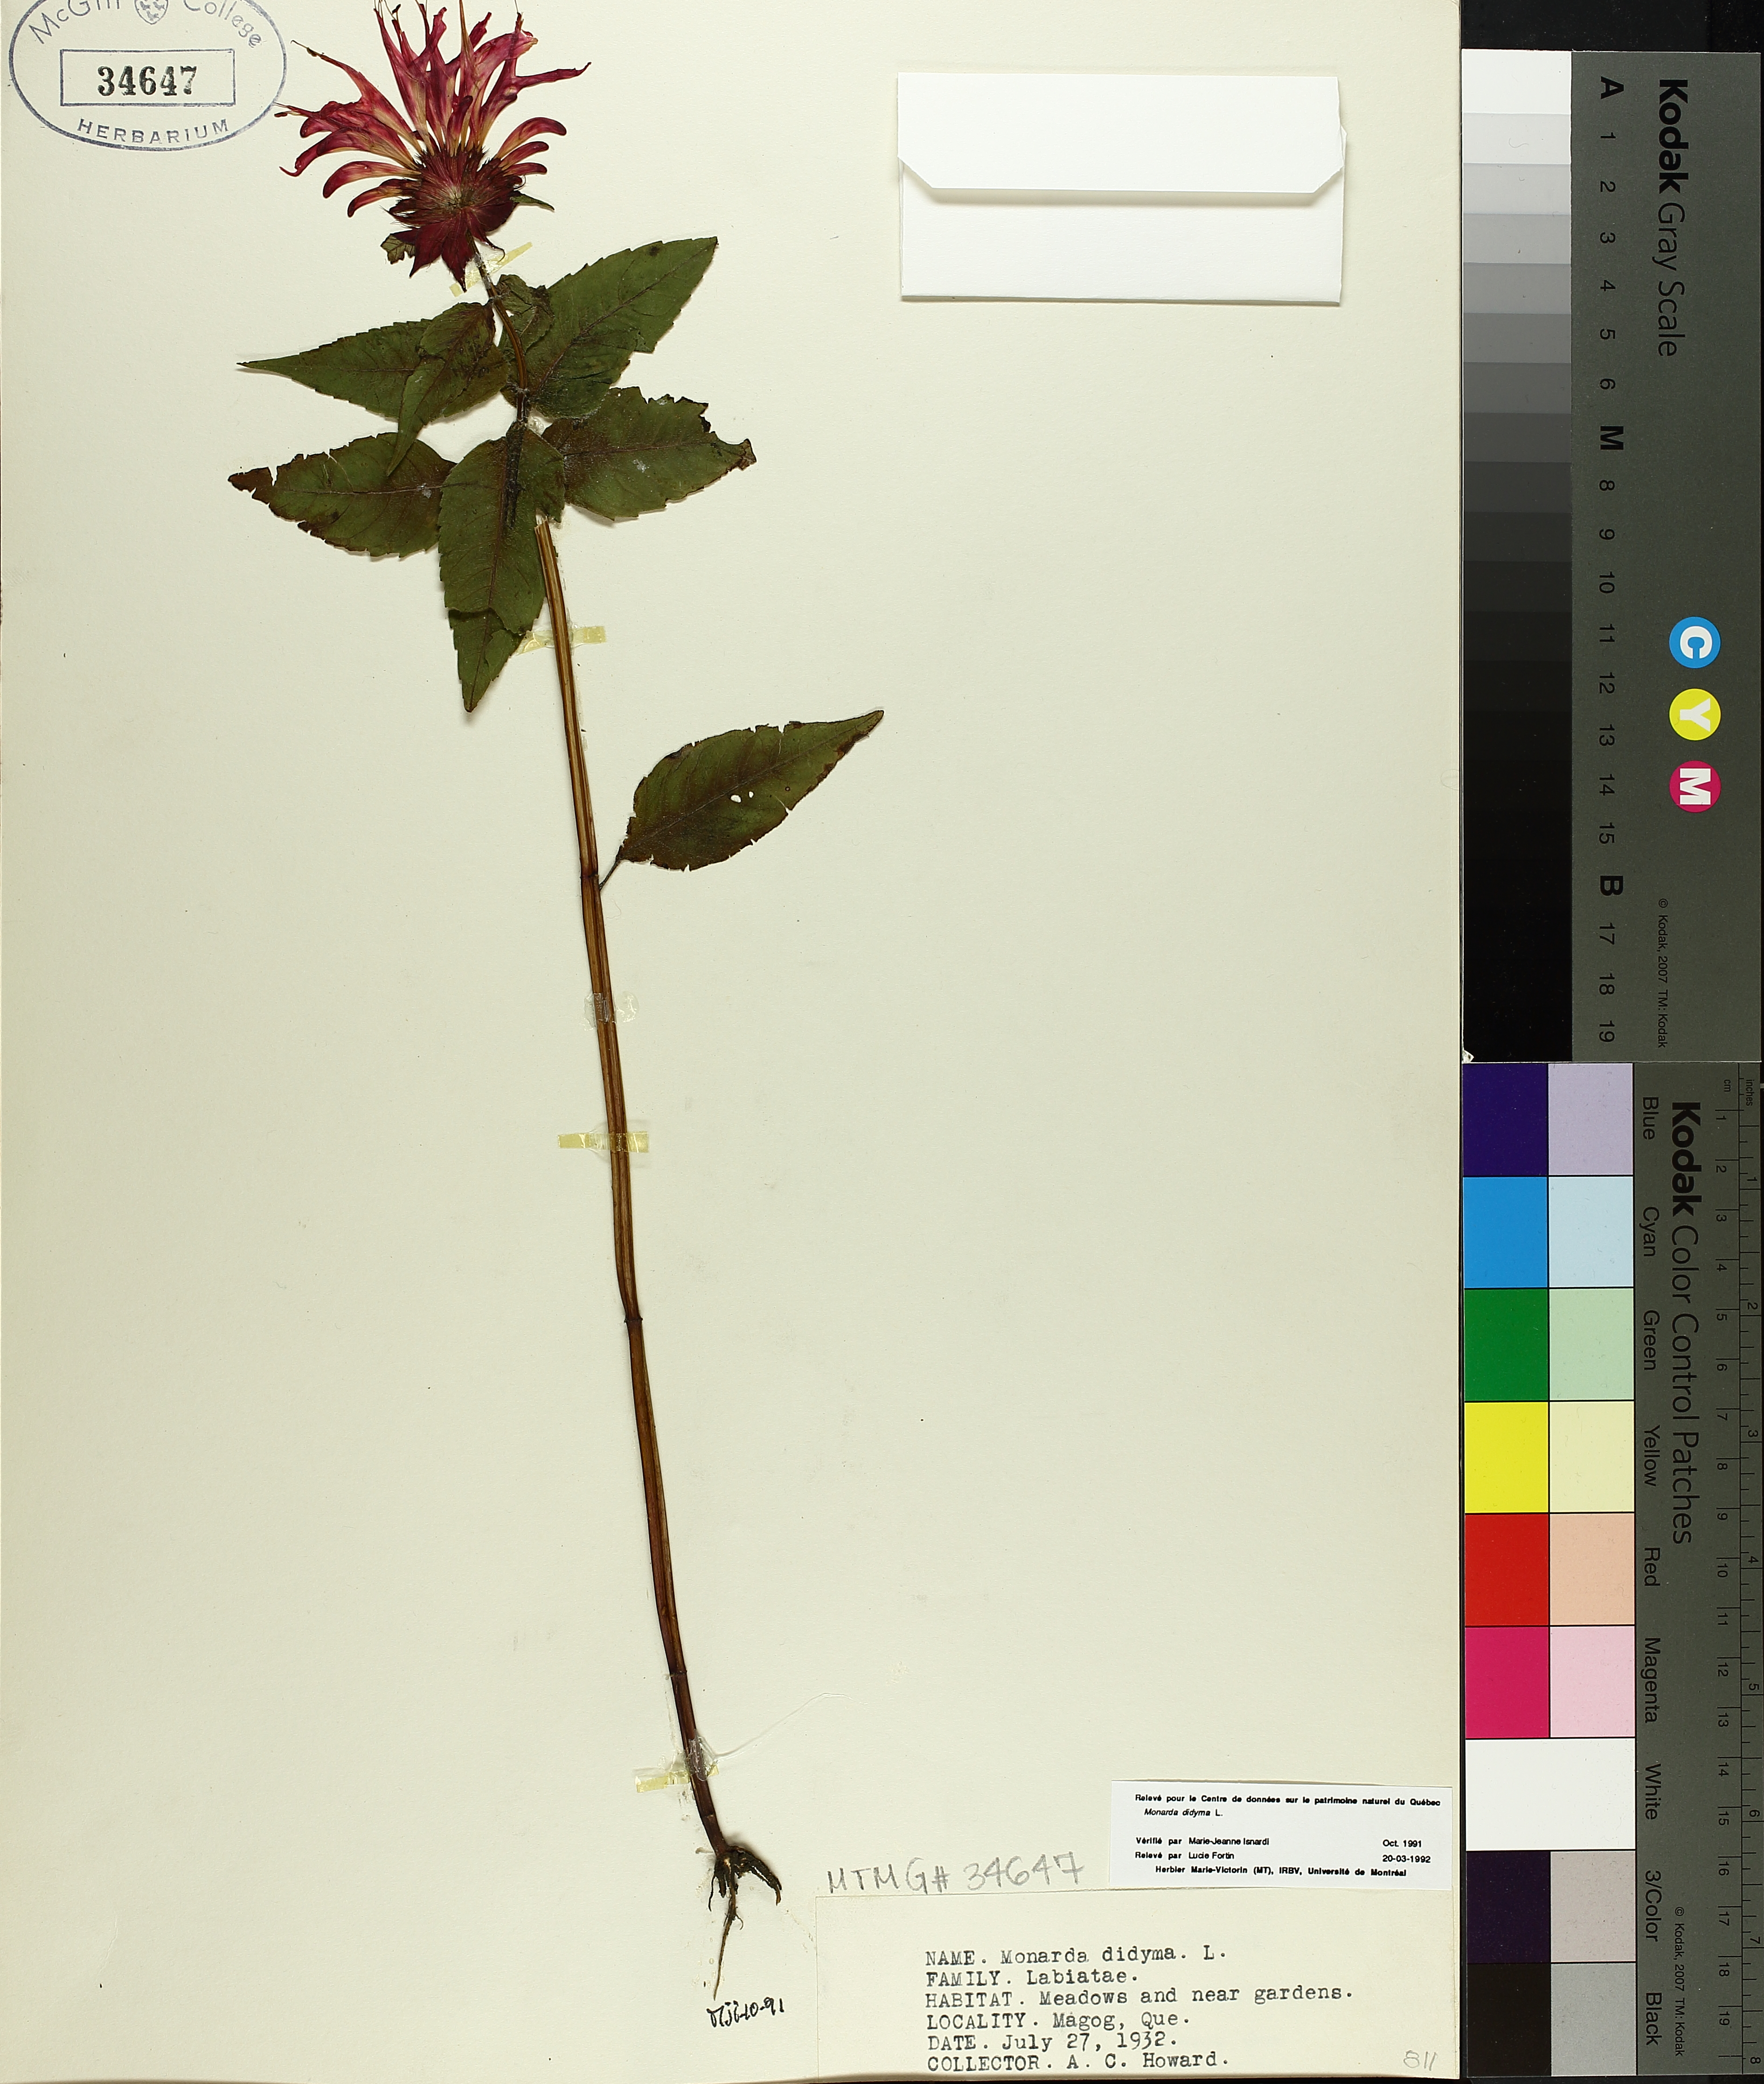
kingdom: Plantae
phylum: Tracheophyta
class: Magnoliopsida
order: Lamiales
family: Lamiaceae
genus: Monarda
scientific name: Monarda didyma
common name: Beebalm
